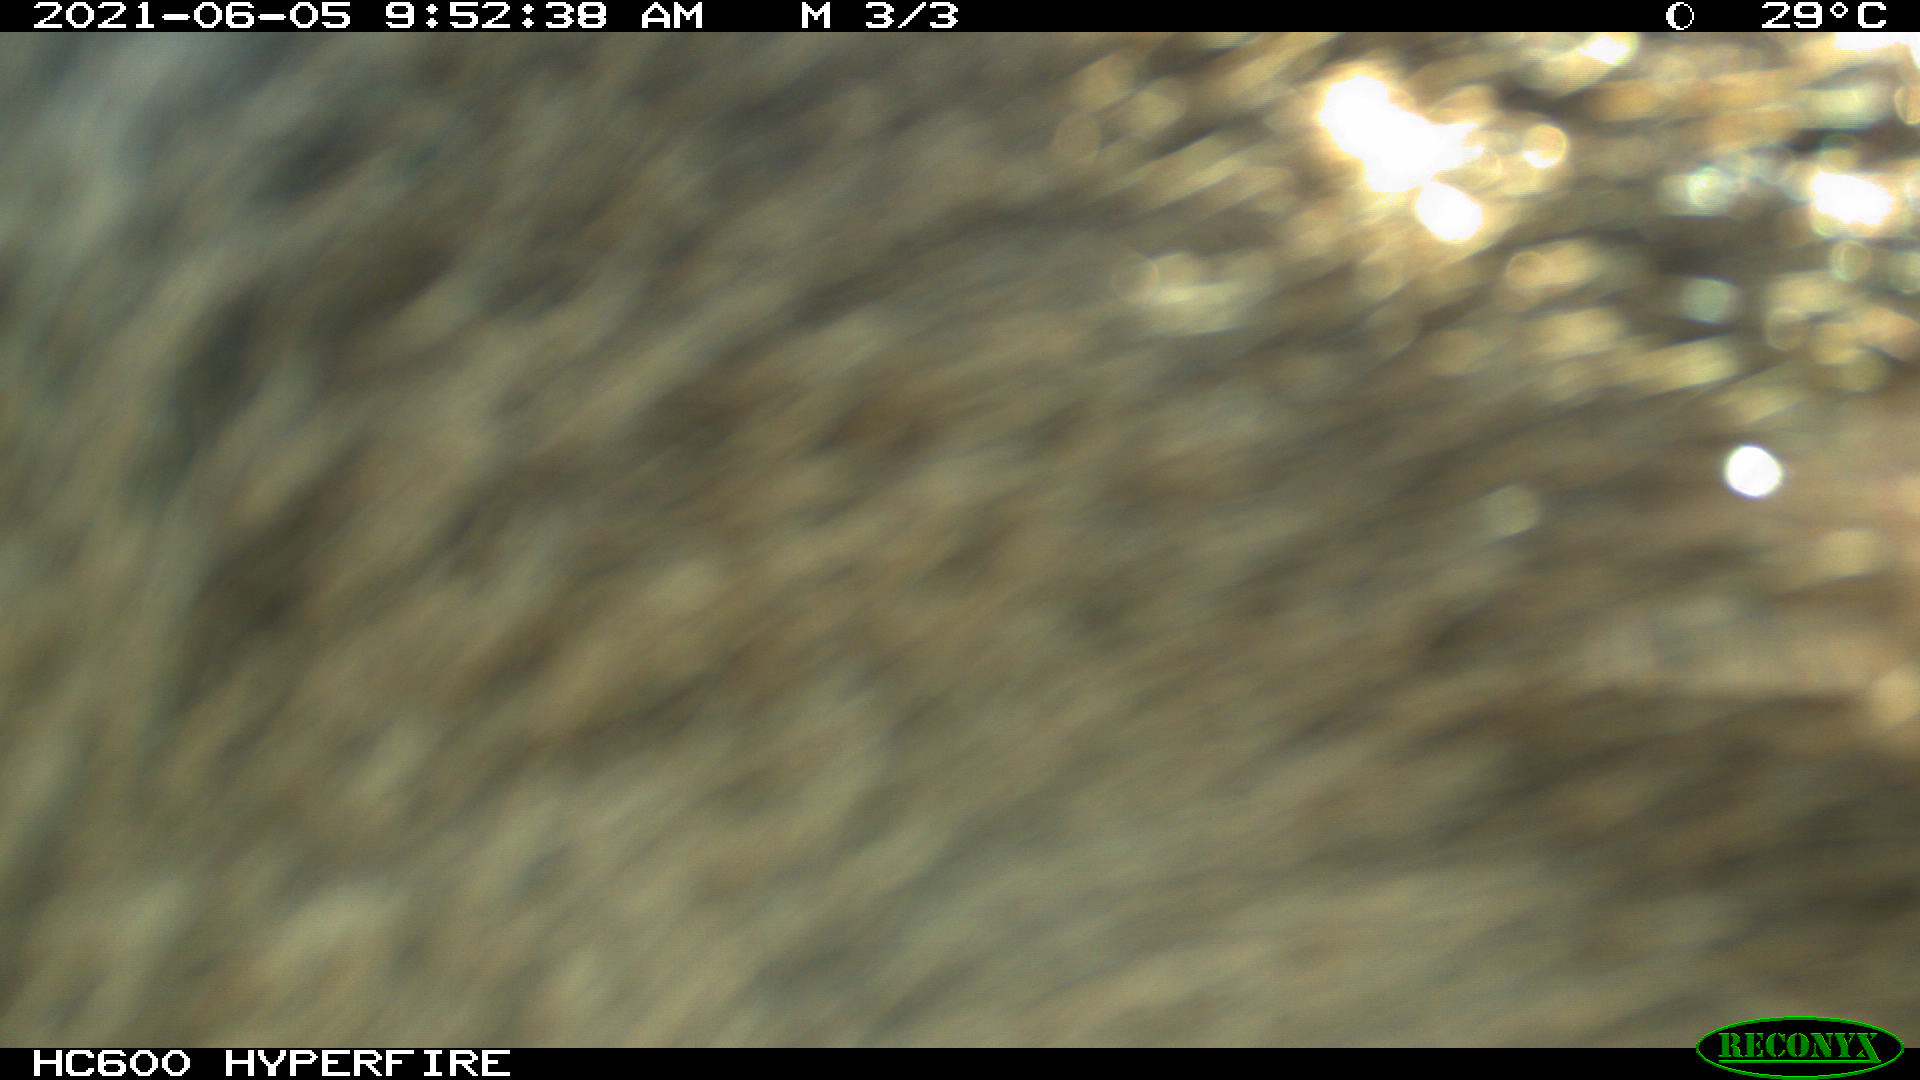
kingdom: Animalia
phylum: Chordata
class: Mammalia
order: Perissodactyla
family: Equidae
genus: Equus
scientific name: Equus caballus
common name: Horse
